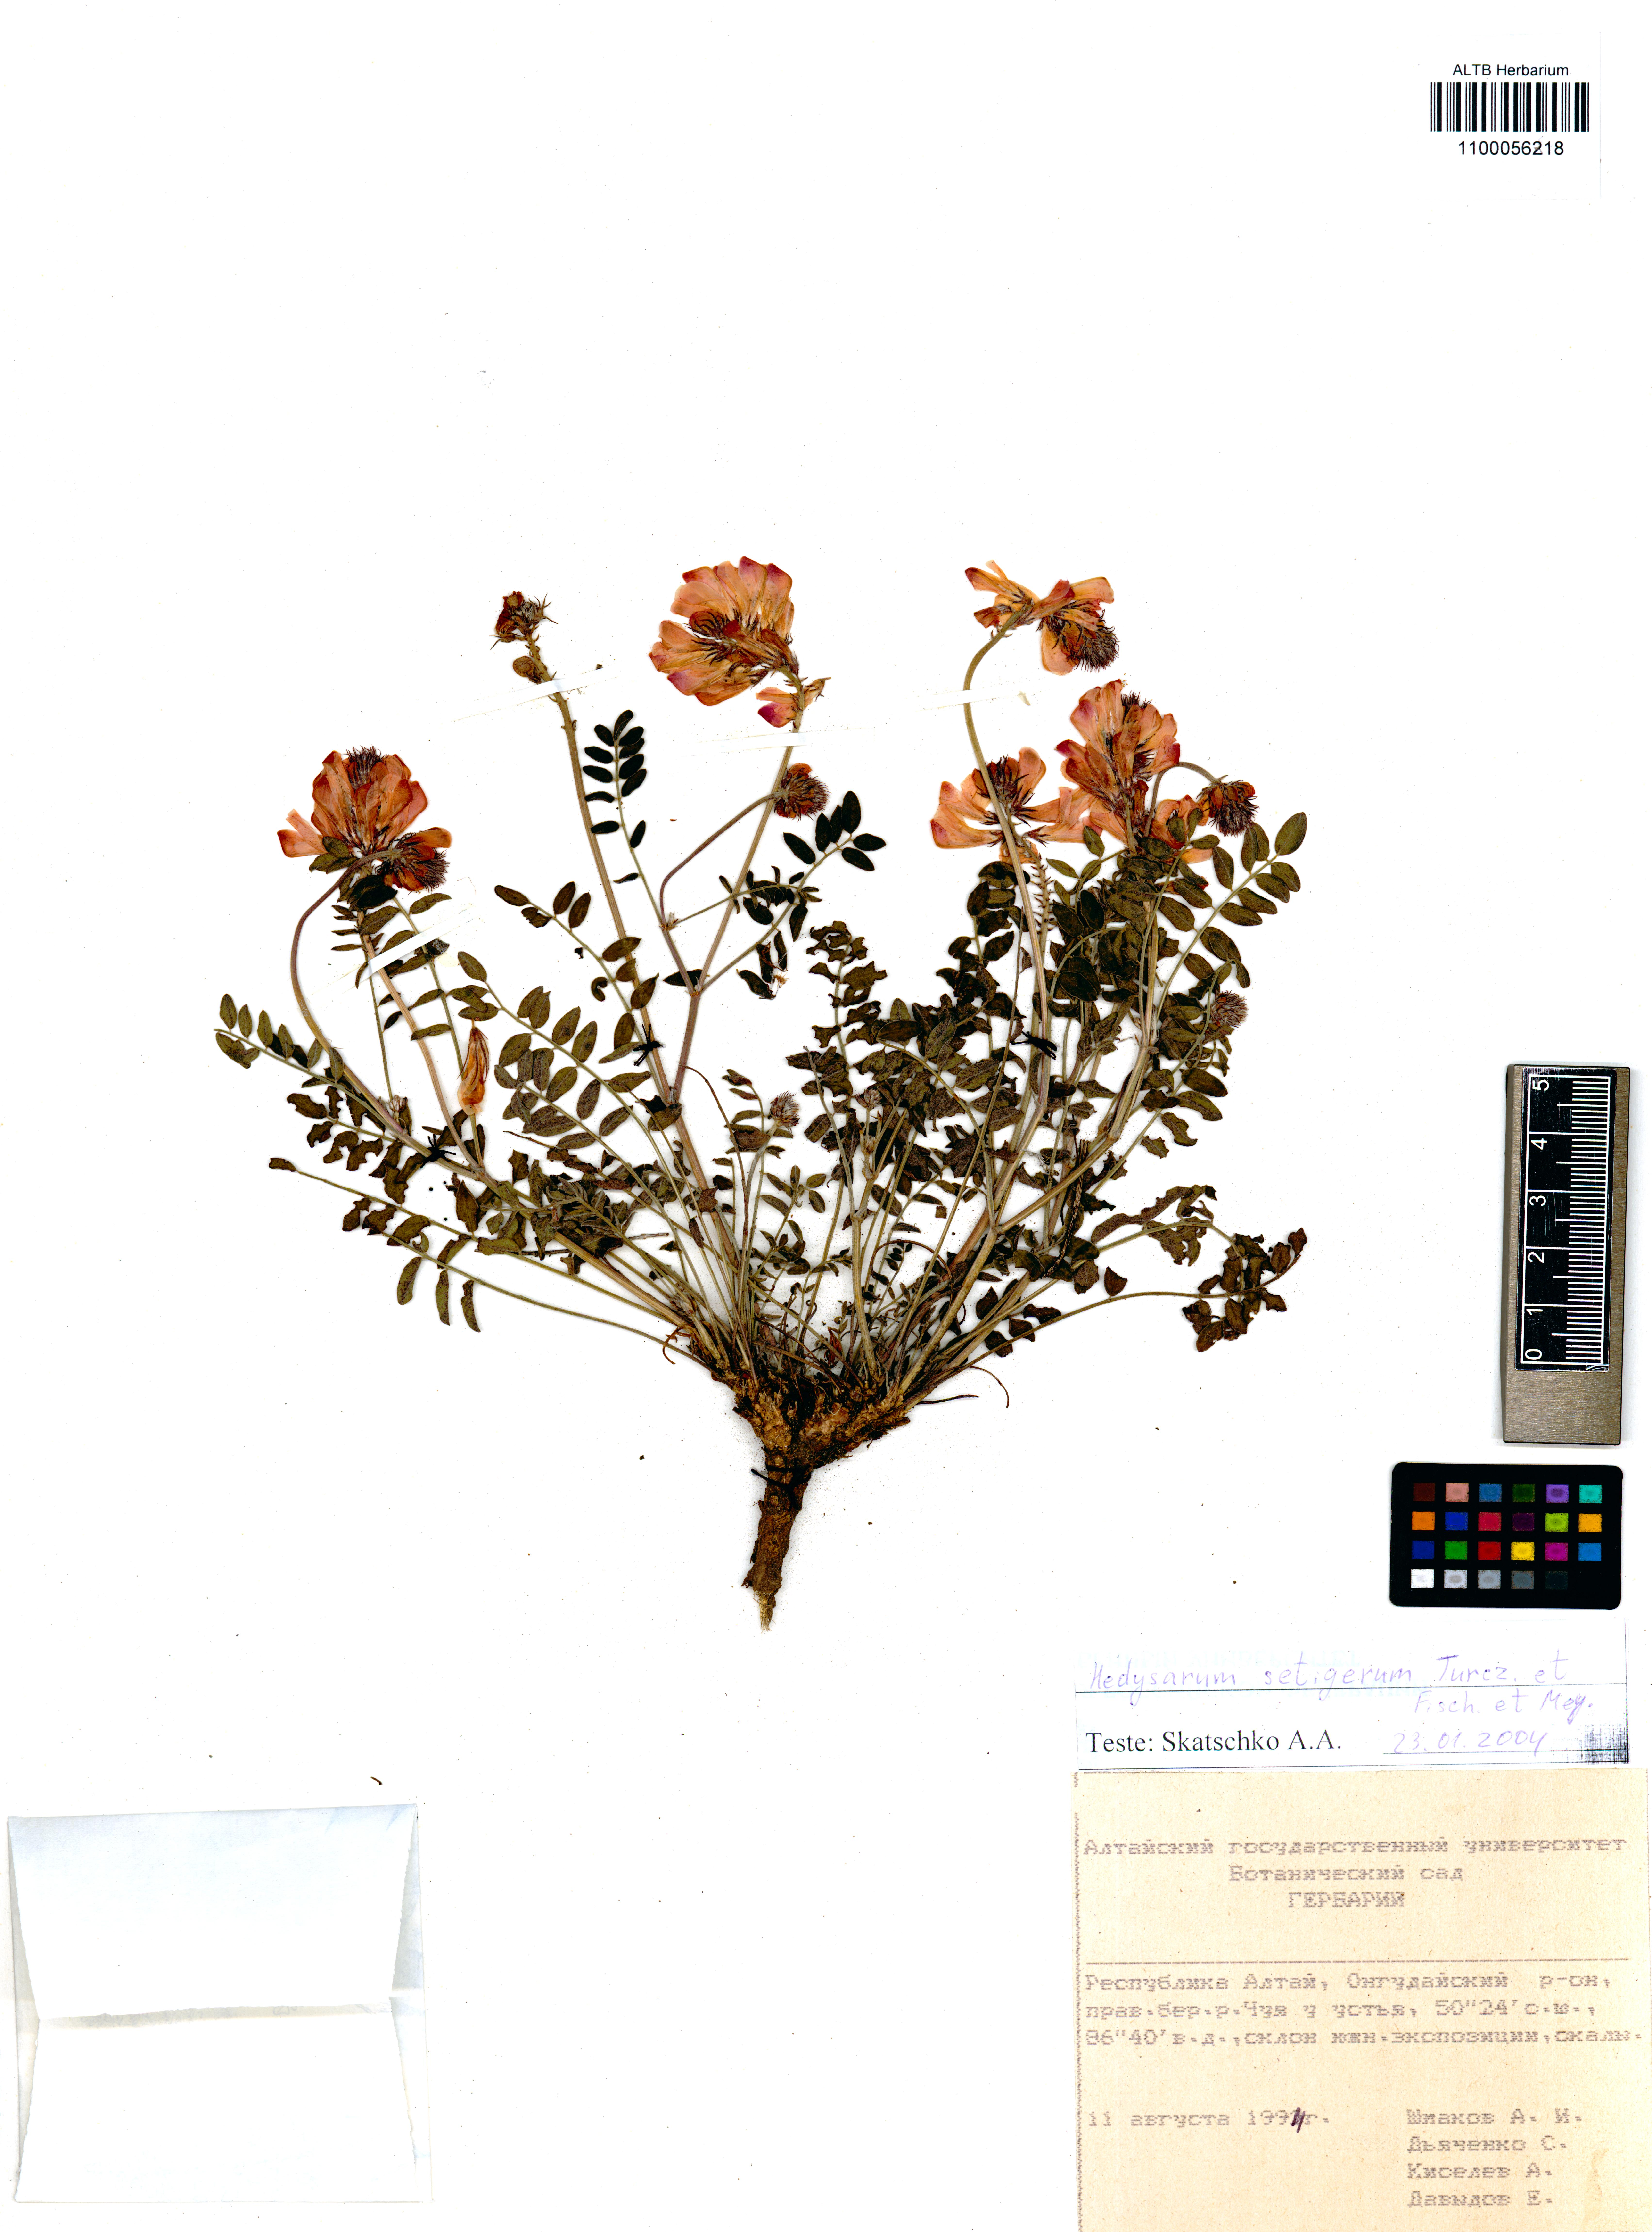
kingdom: Plantae
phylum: Tracheophyta
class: Magnoliopsida
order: Fabales
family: Fabaceae
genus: Hedysarum
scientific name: Hedysarum setigerum
